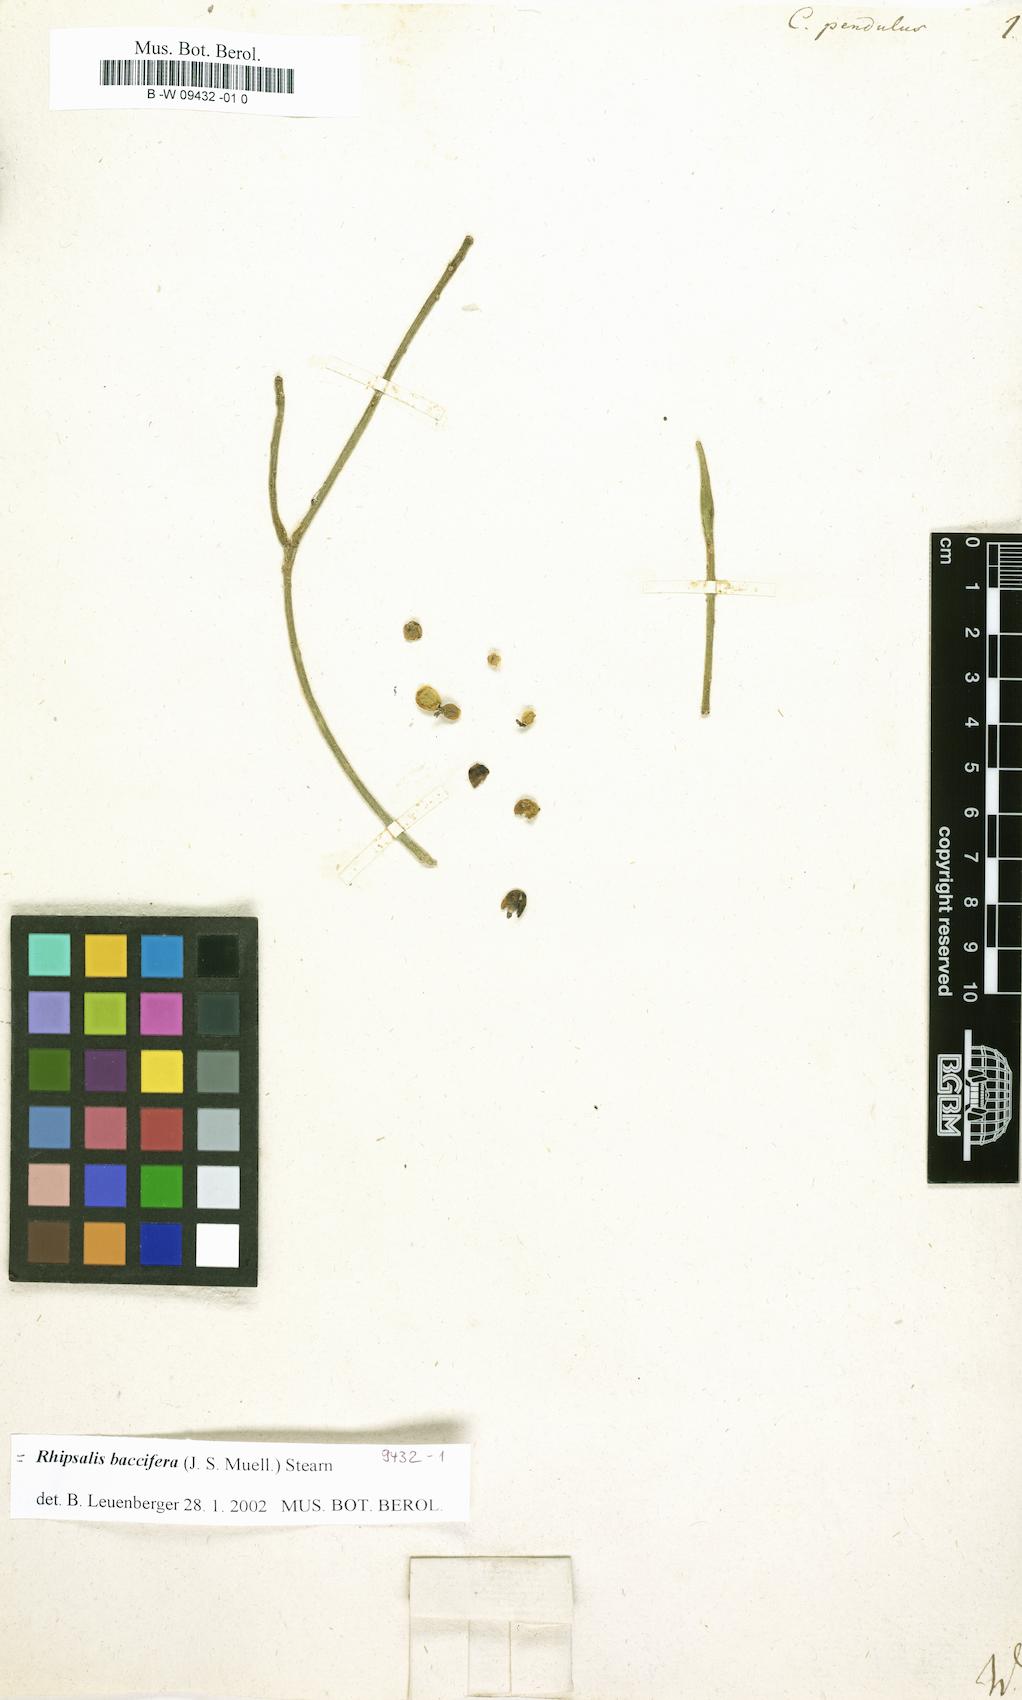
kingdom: Plantae
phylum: Tracheophyta
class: Magnoliopsida
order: Caryophyllales
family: Cactaceae
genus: Rhipsalis
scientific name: Rhipsalis baccifera
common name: Mistletoe cactus
